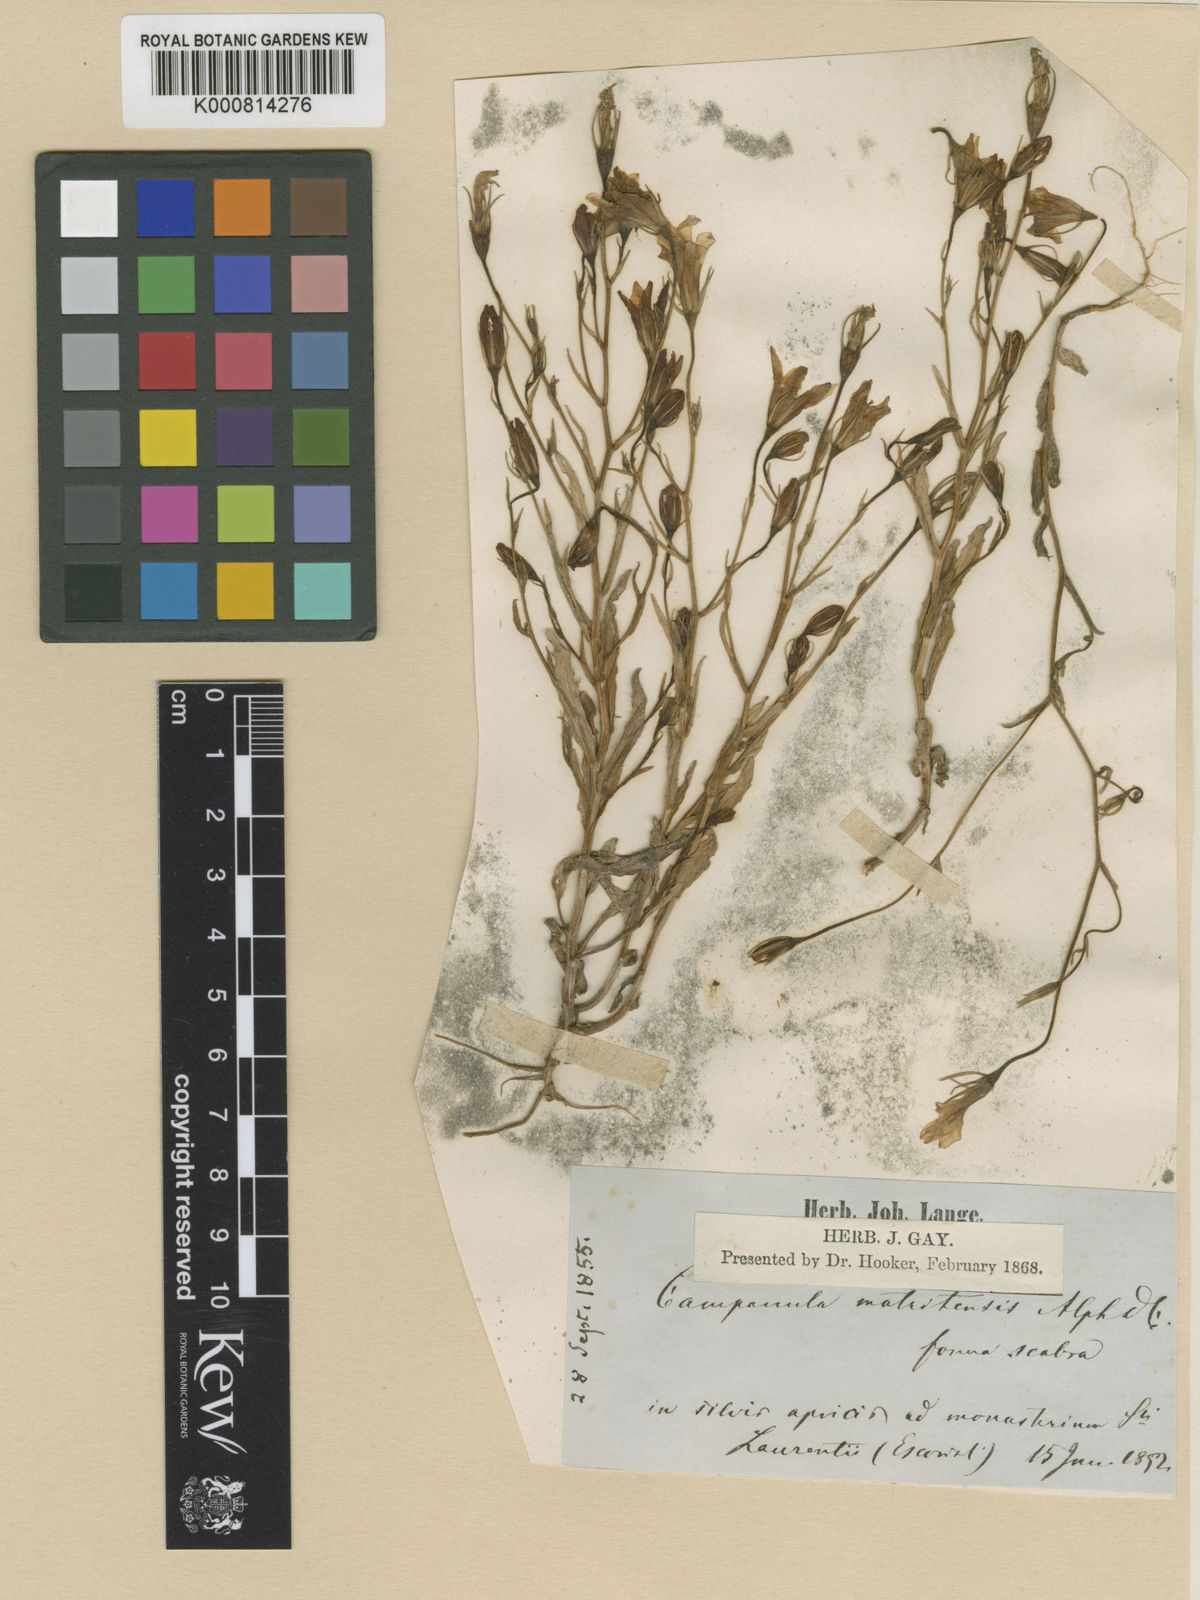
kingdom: Plantae
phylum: Tracheophyta
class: Magnoliopsida
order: Asterales
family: Campanulaceae
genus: Campanula
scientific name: Campanula luristanica
